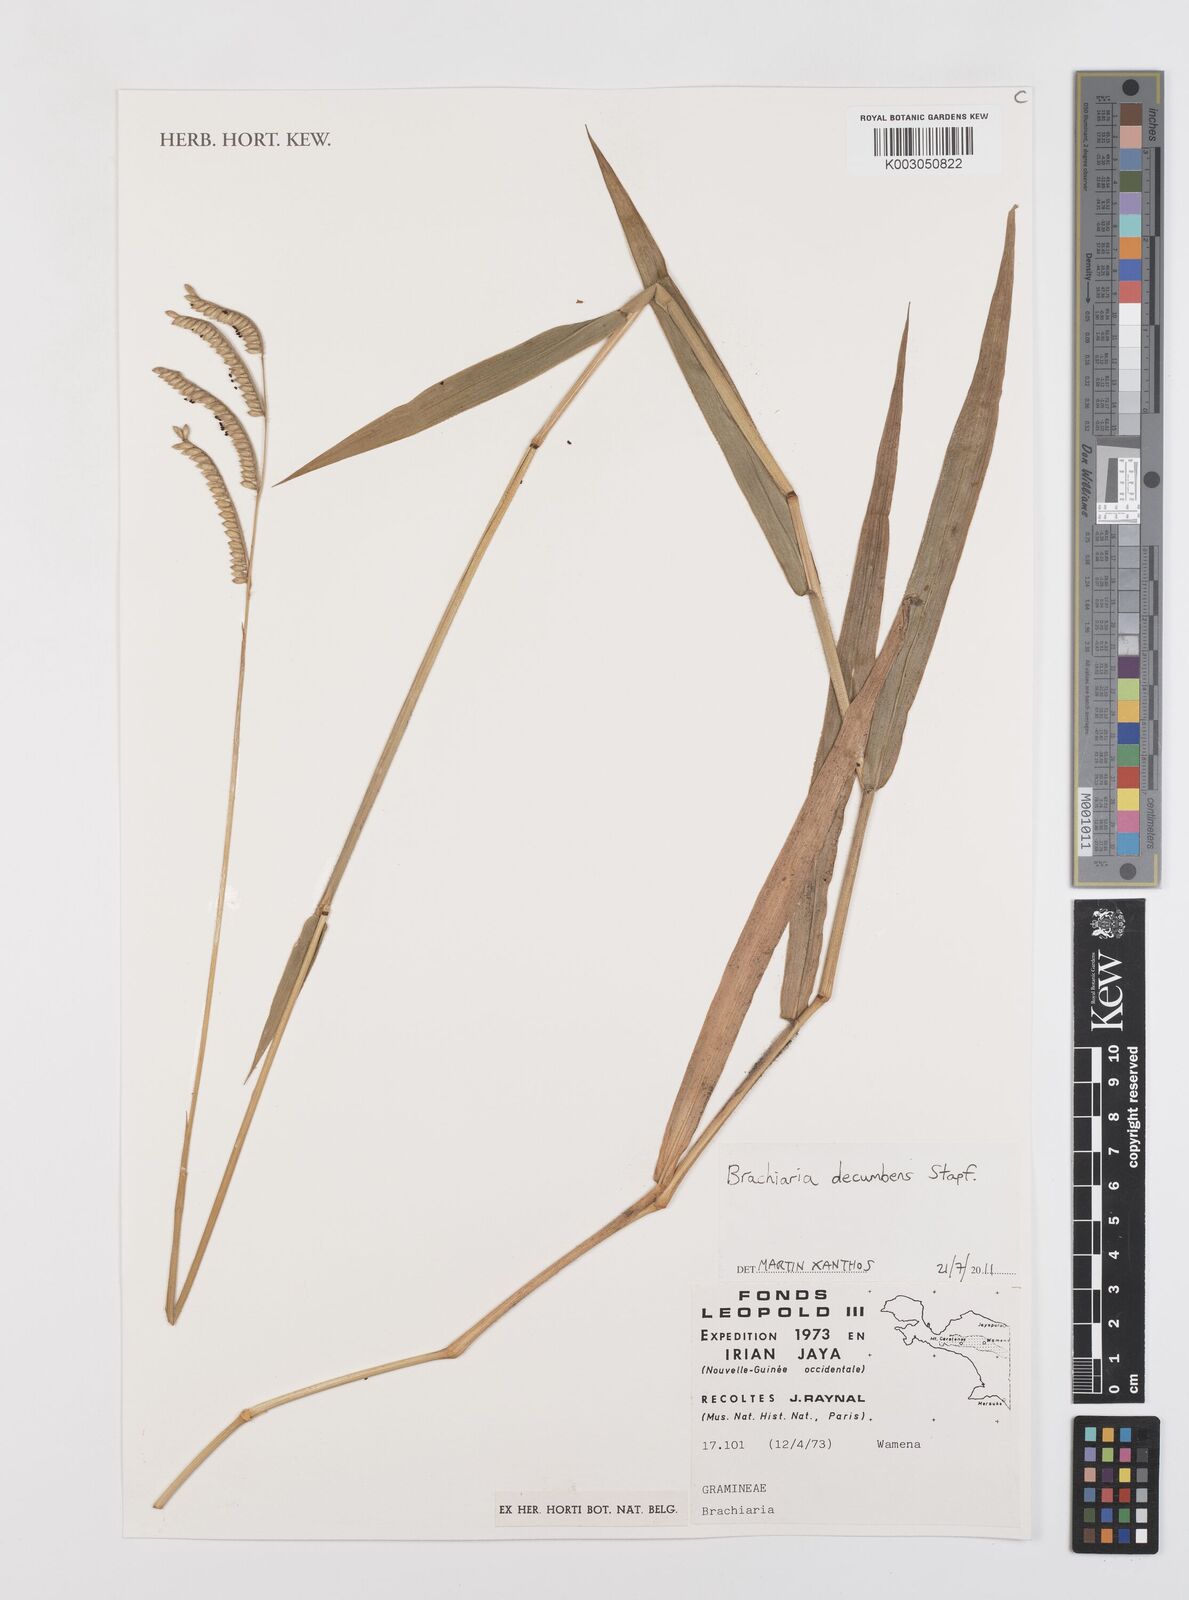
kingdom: Plantae
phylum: Tracheophyta
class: Liliopsida
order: Poales
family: Poaceae
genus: Urochloa
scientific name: Urochloa eminii
